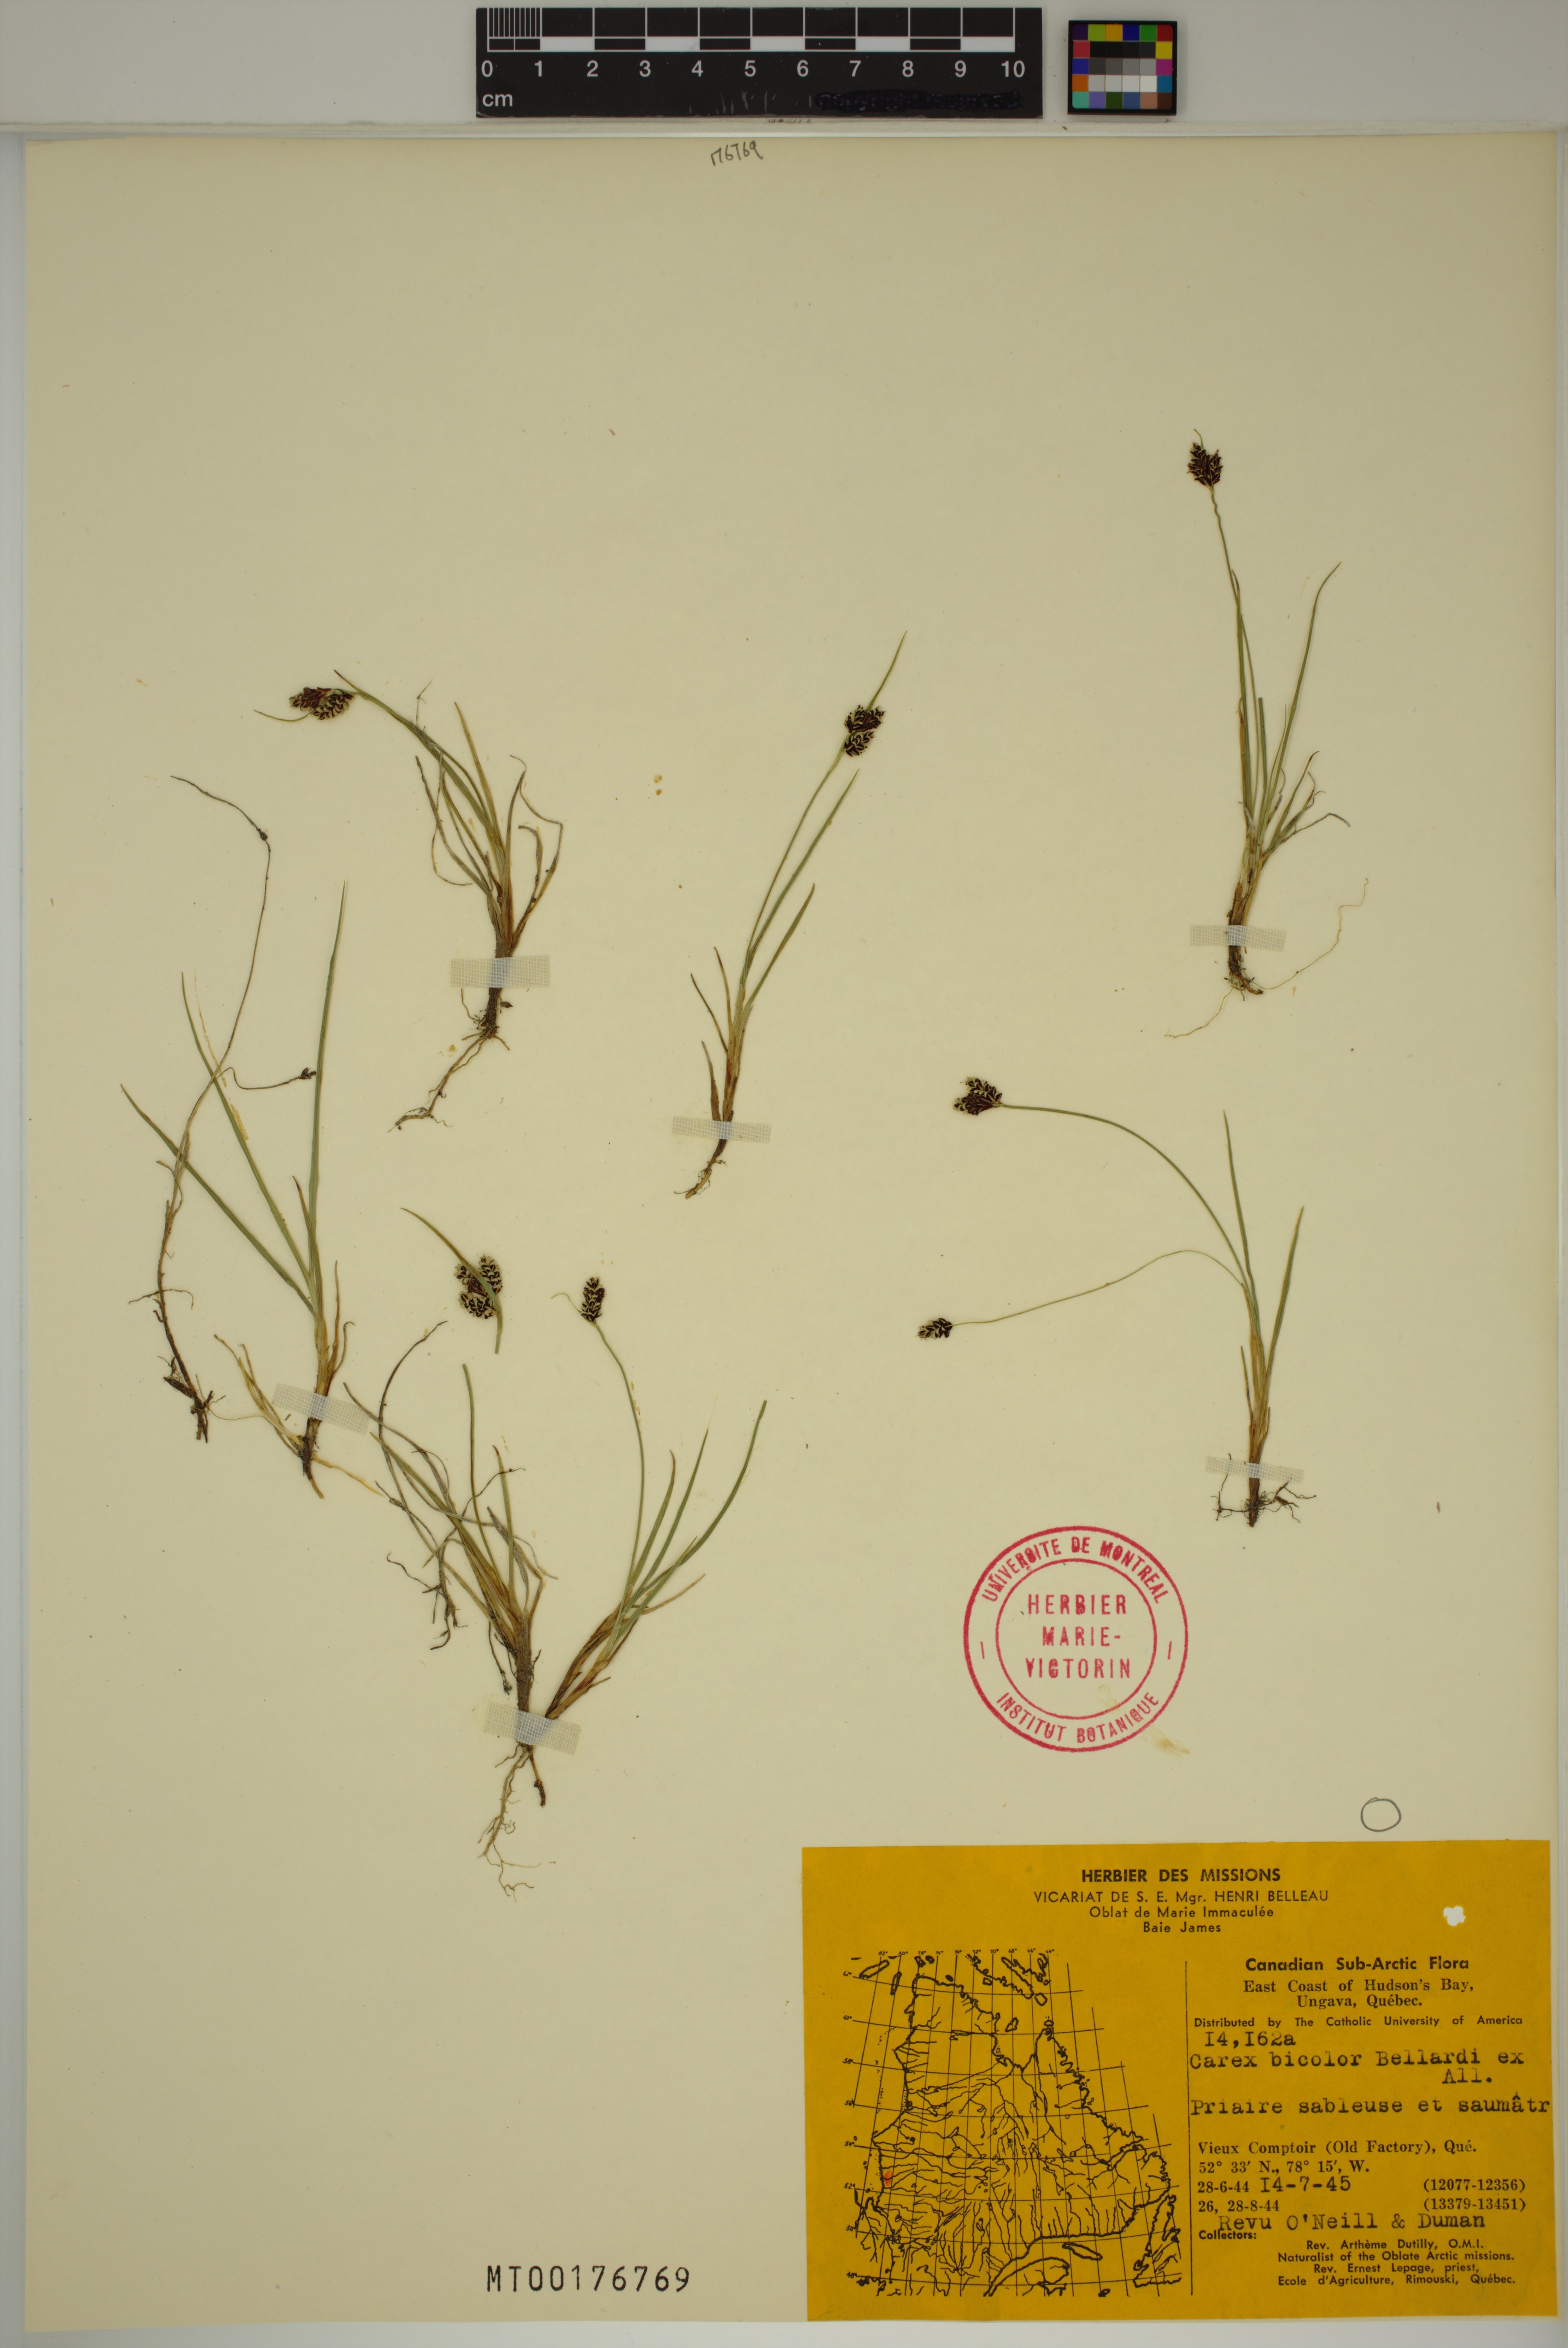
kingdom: Plantae
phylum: Tracheophyta
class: Liliopsida
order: Poales
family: Cyperaceae
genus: Carex
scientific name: Carex bicolor
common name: Bicoloured sedge
